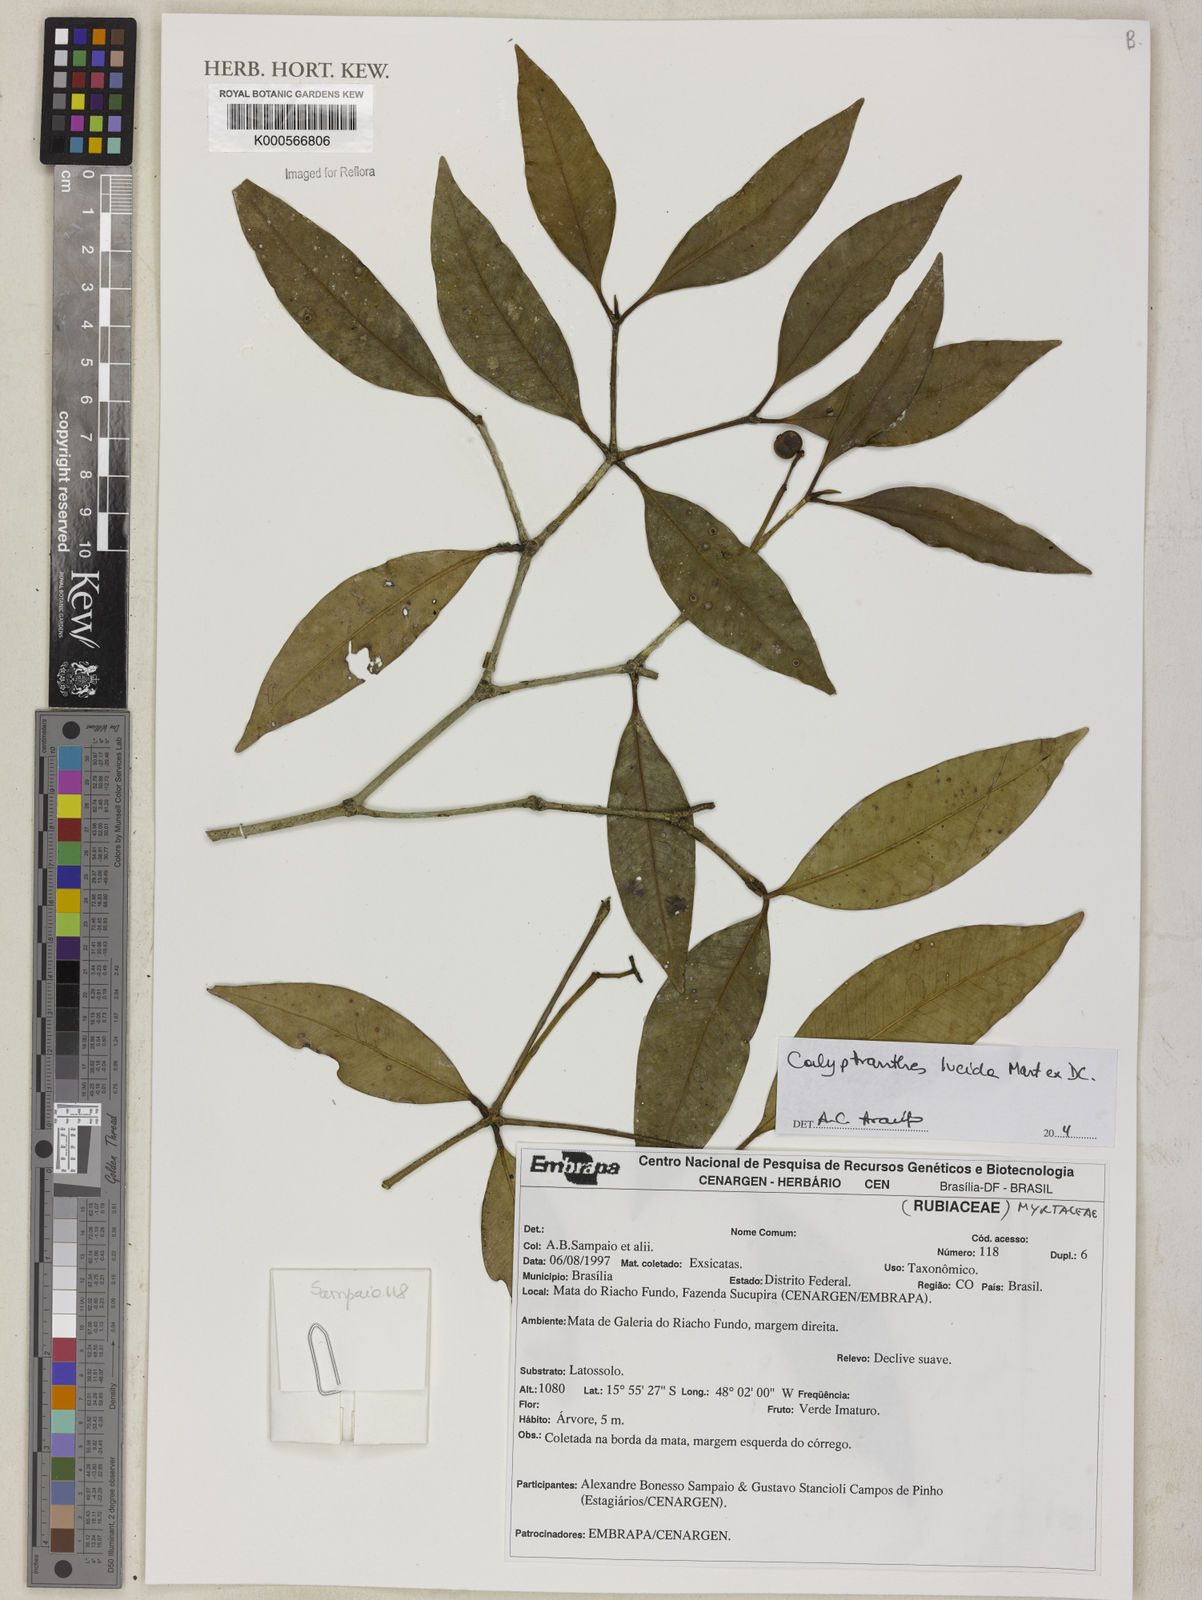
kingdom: Plantae
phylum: Tracheophyta
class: Magnoliopsida
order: Myrtales
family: Myrtaceae
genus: Calyptranthes
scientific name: Calyptranthes grandifolia
